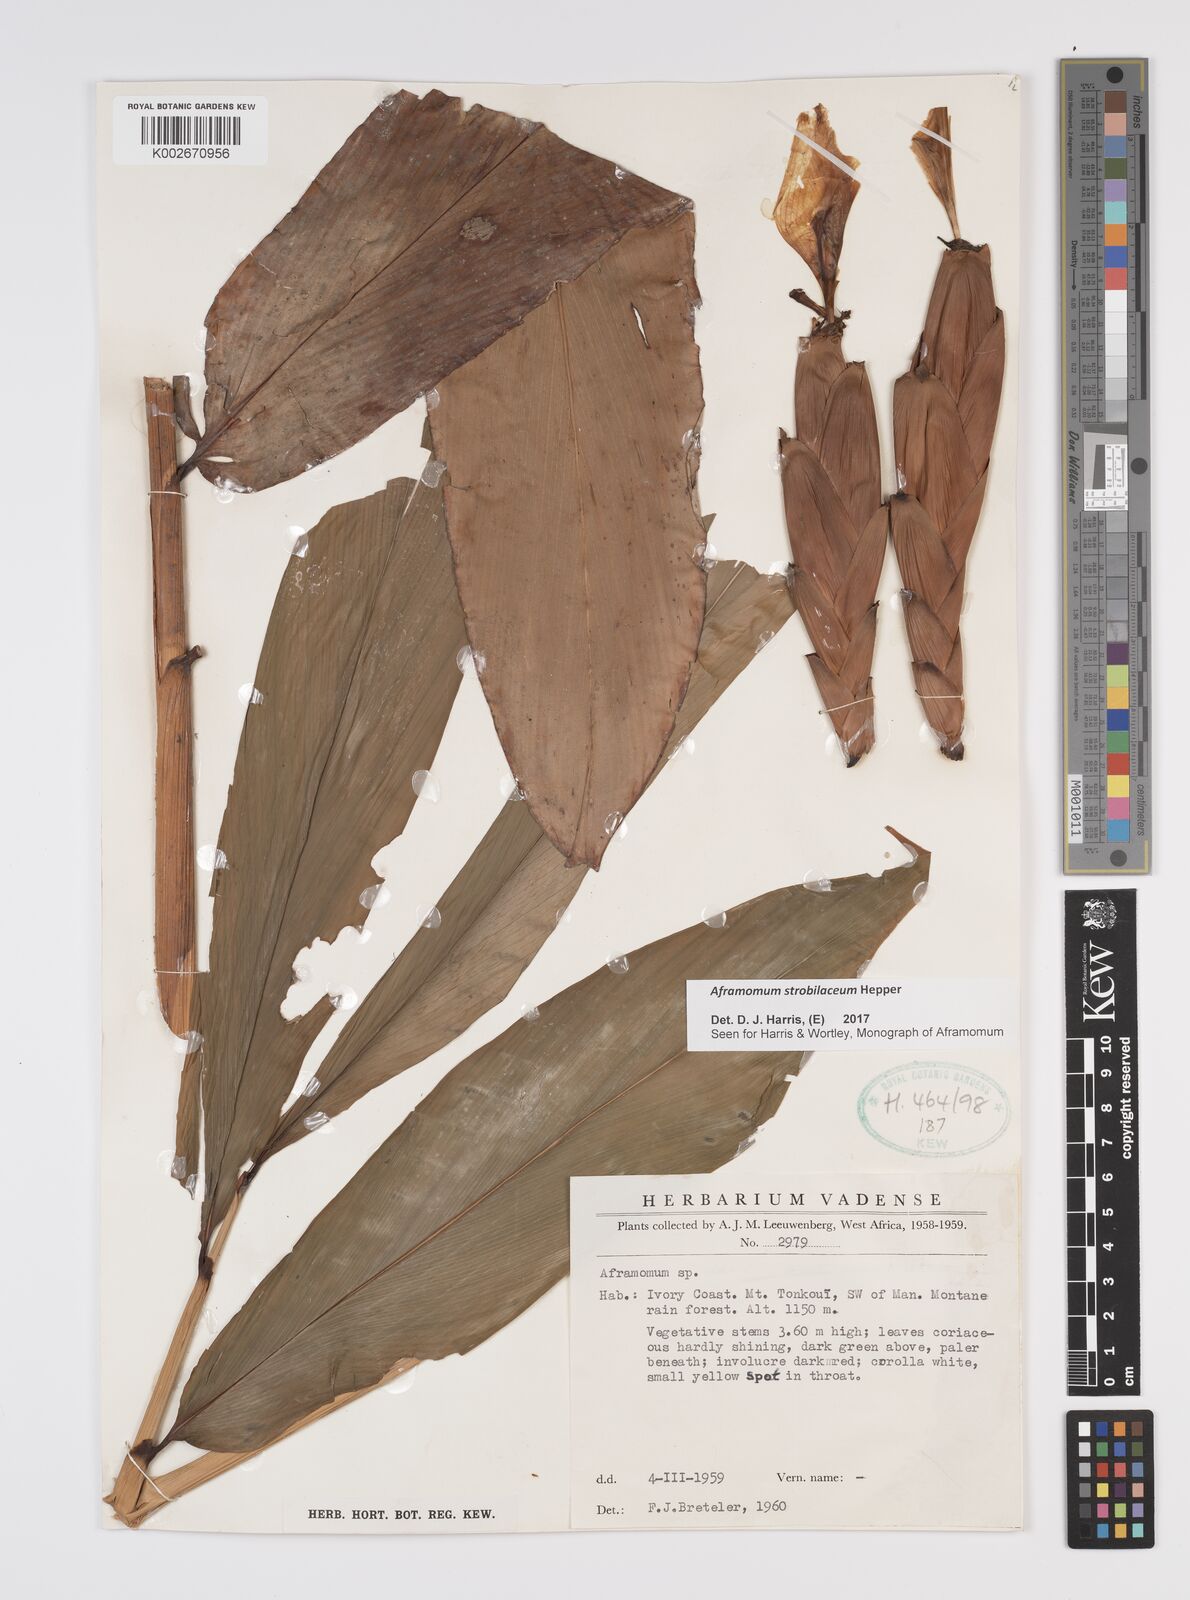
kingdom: Plantae
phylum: Tracheophyta
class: Liliopsida
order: Zingiberales
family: Zingiberaceae
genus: Aframomum
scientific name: Aframomum strobilaceum
